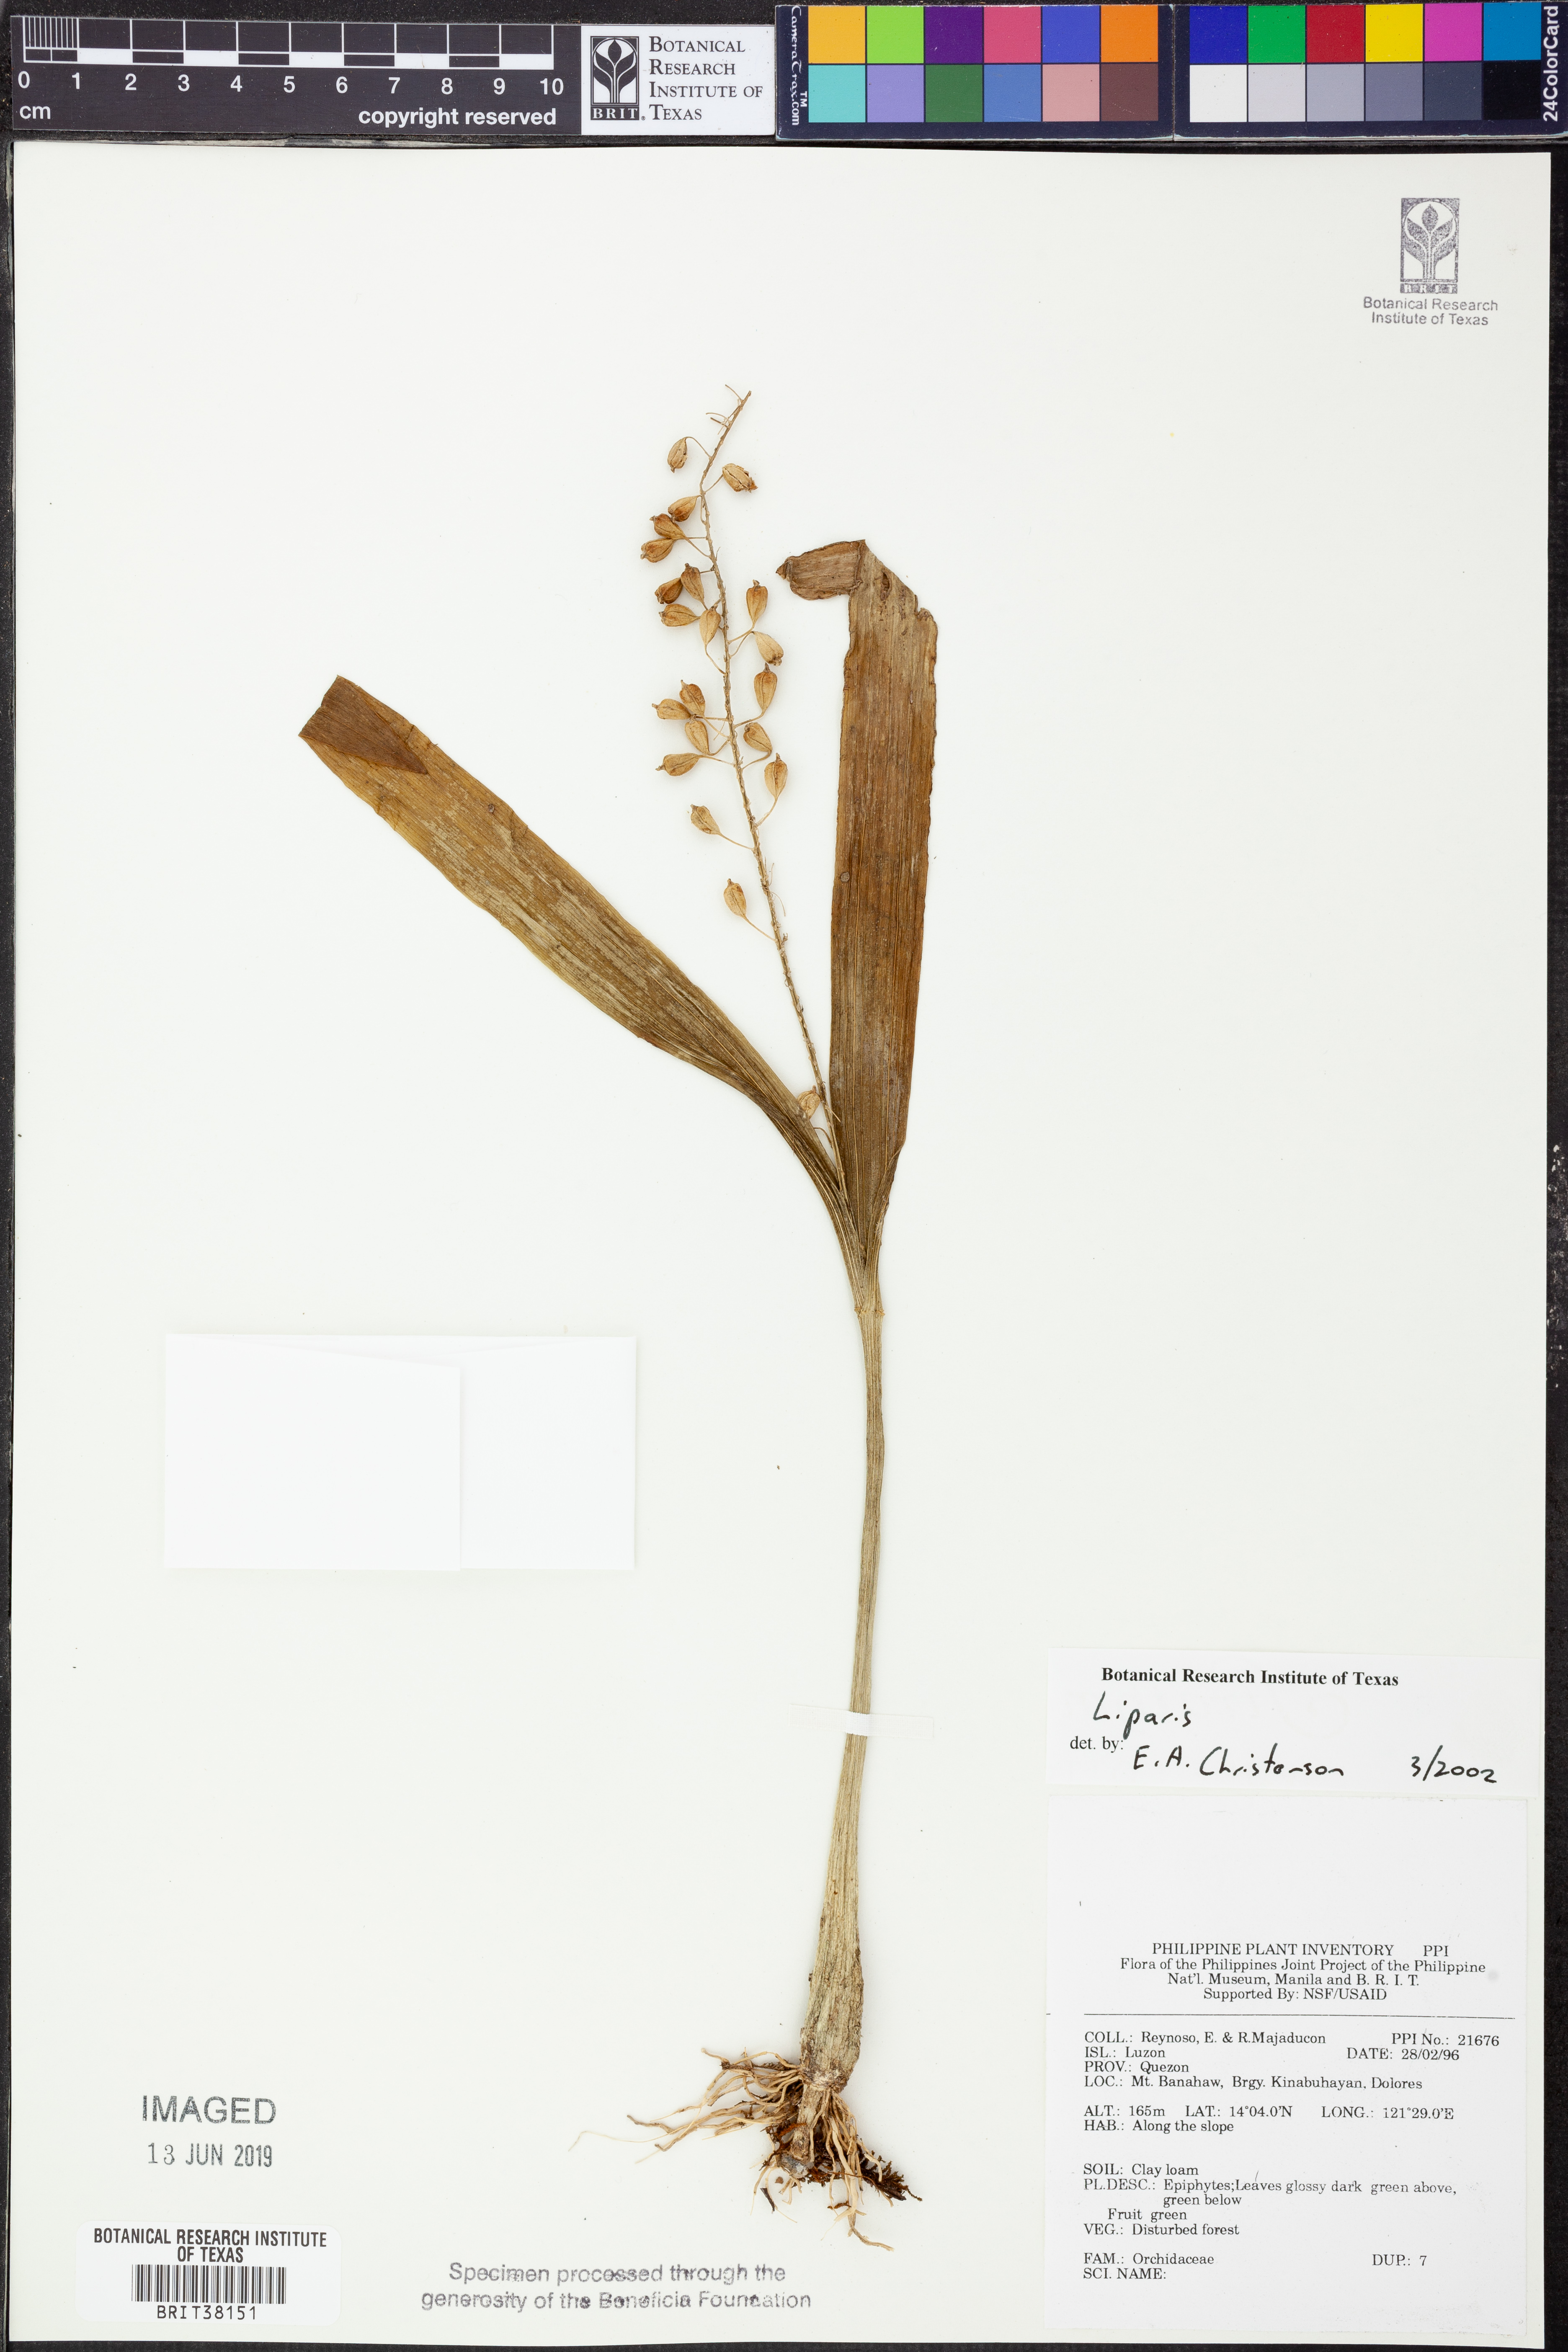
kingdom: Plantae
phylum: Tracheophyta
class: Liliopsida
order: Asparagales
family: Orchidaceae
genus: Liparis
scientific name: Liparis
